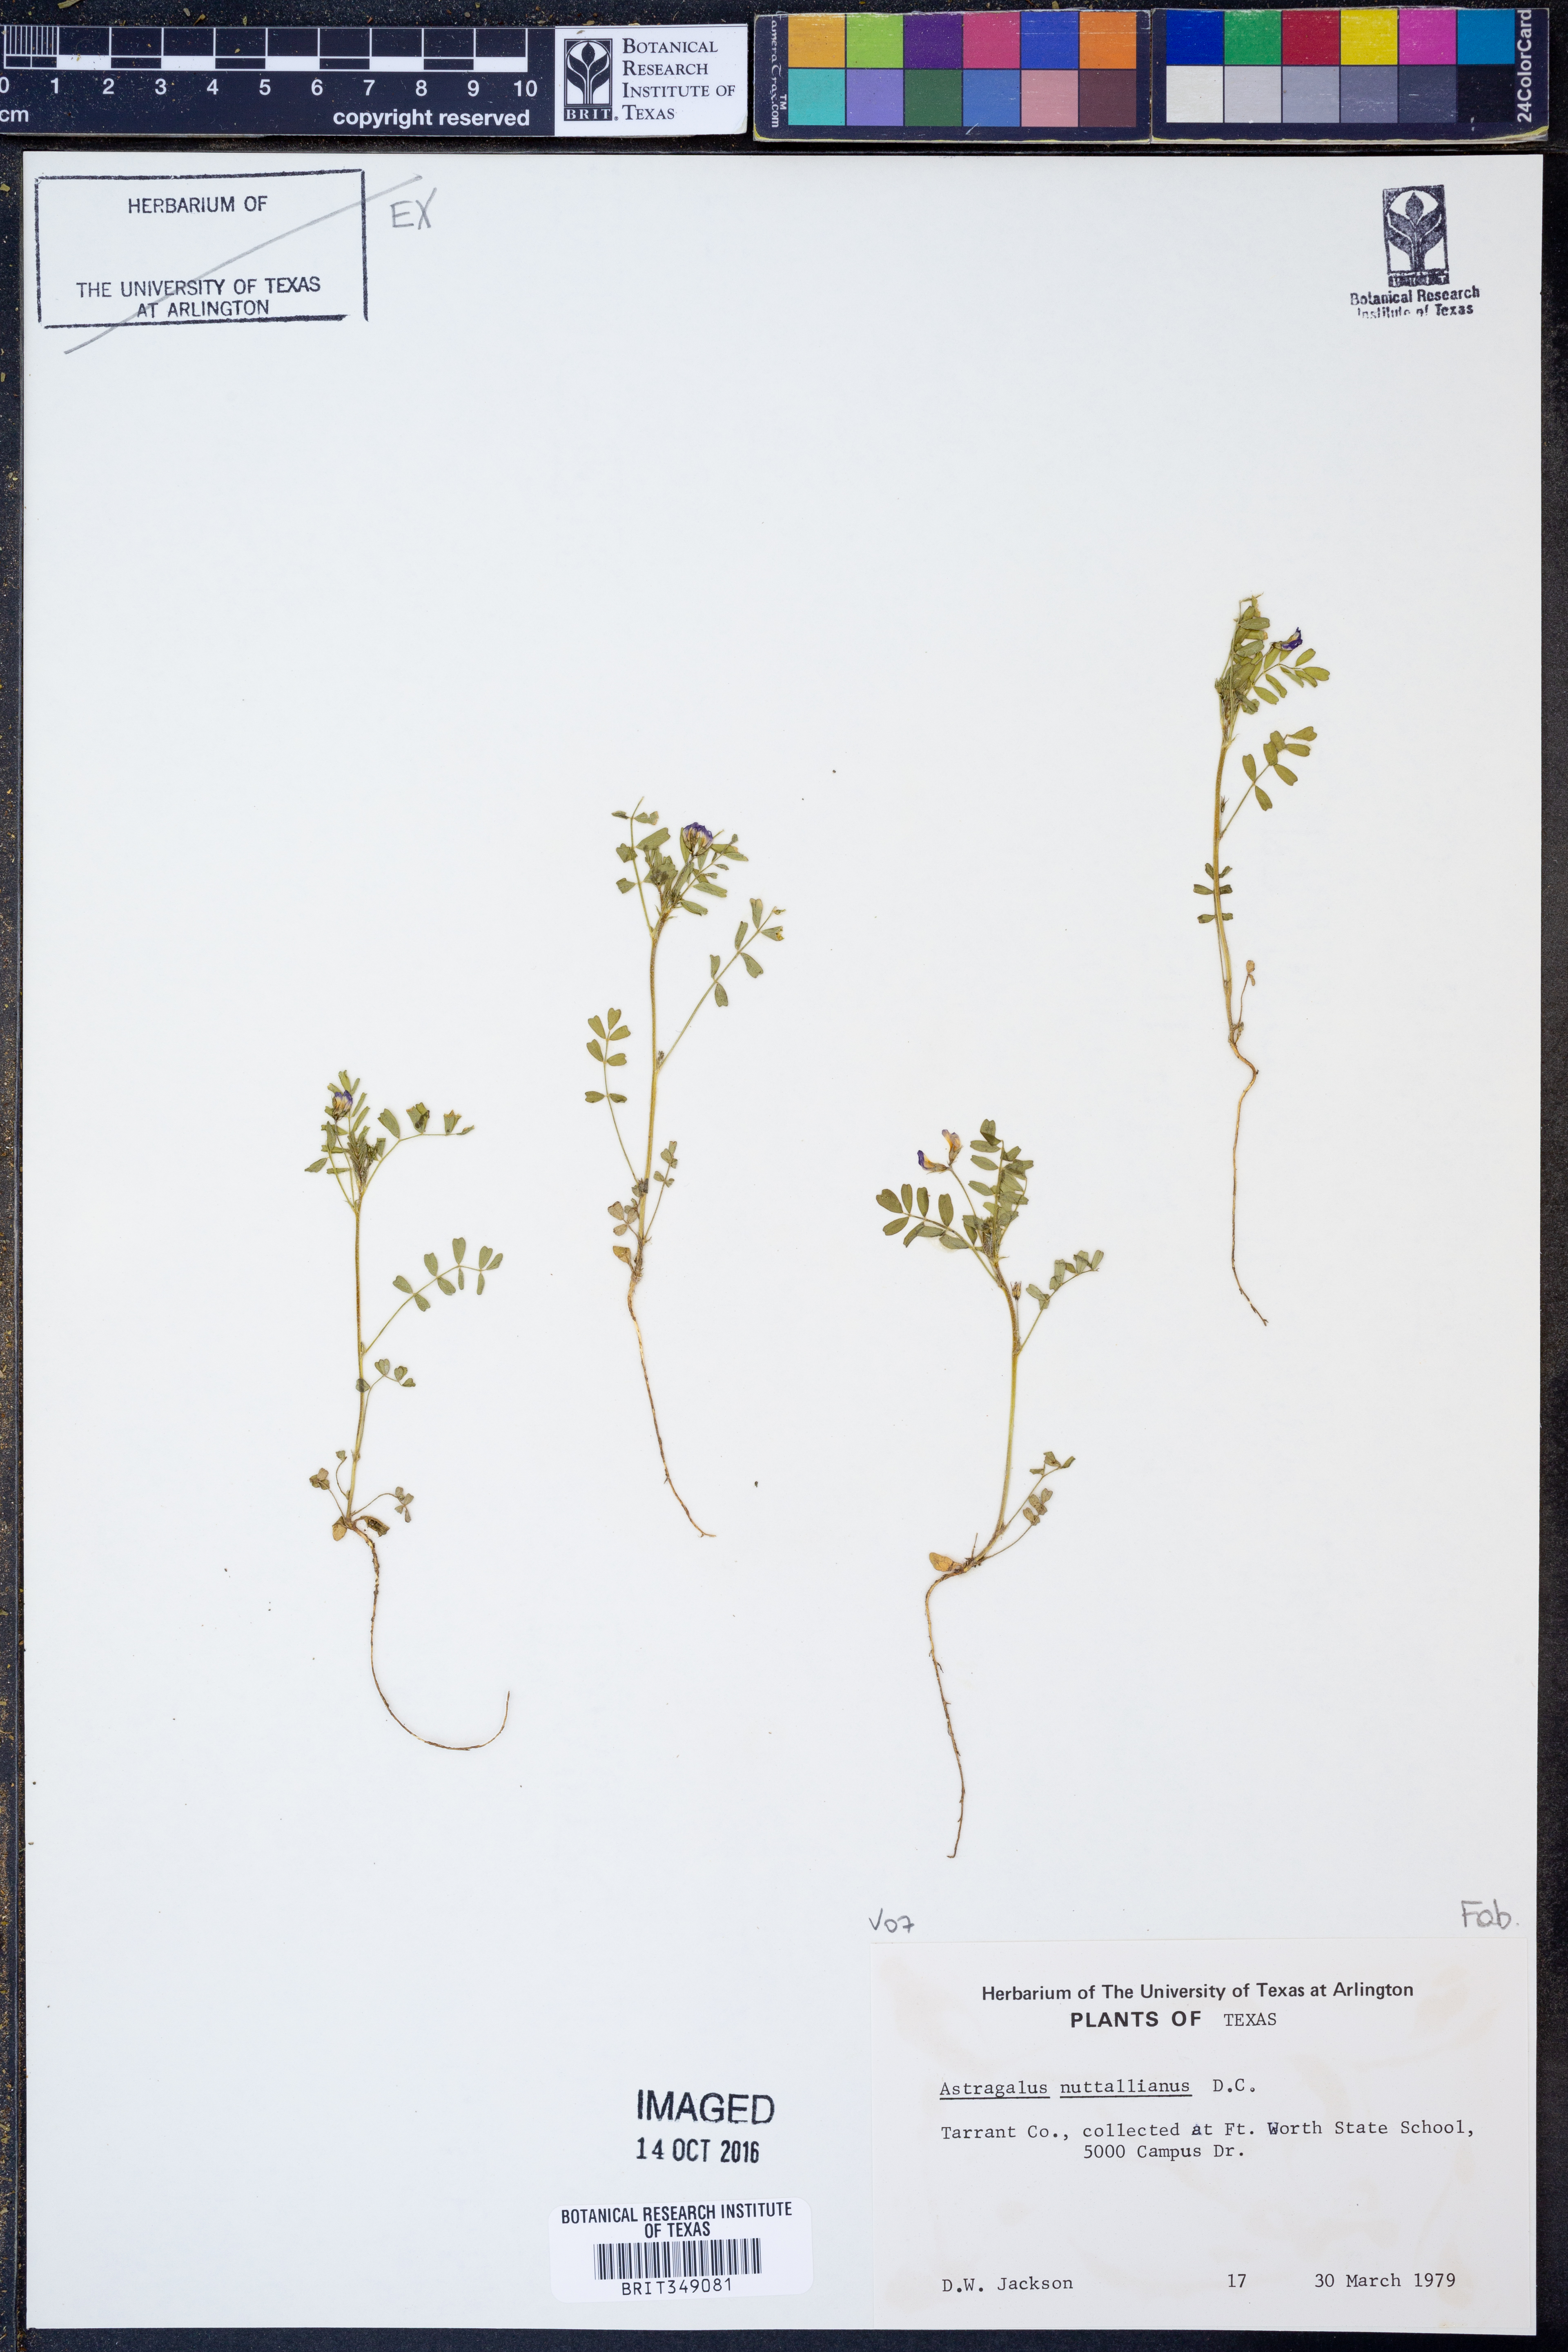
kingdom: Plantae
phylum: Tracheophyta
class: Magnoliopsida
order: Fabales
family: Fabaceae
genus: Astragalus
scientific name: Astragalus nuttallianus
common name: Smallflowered milkvetch
